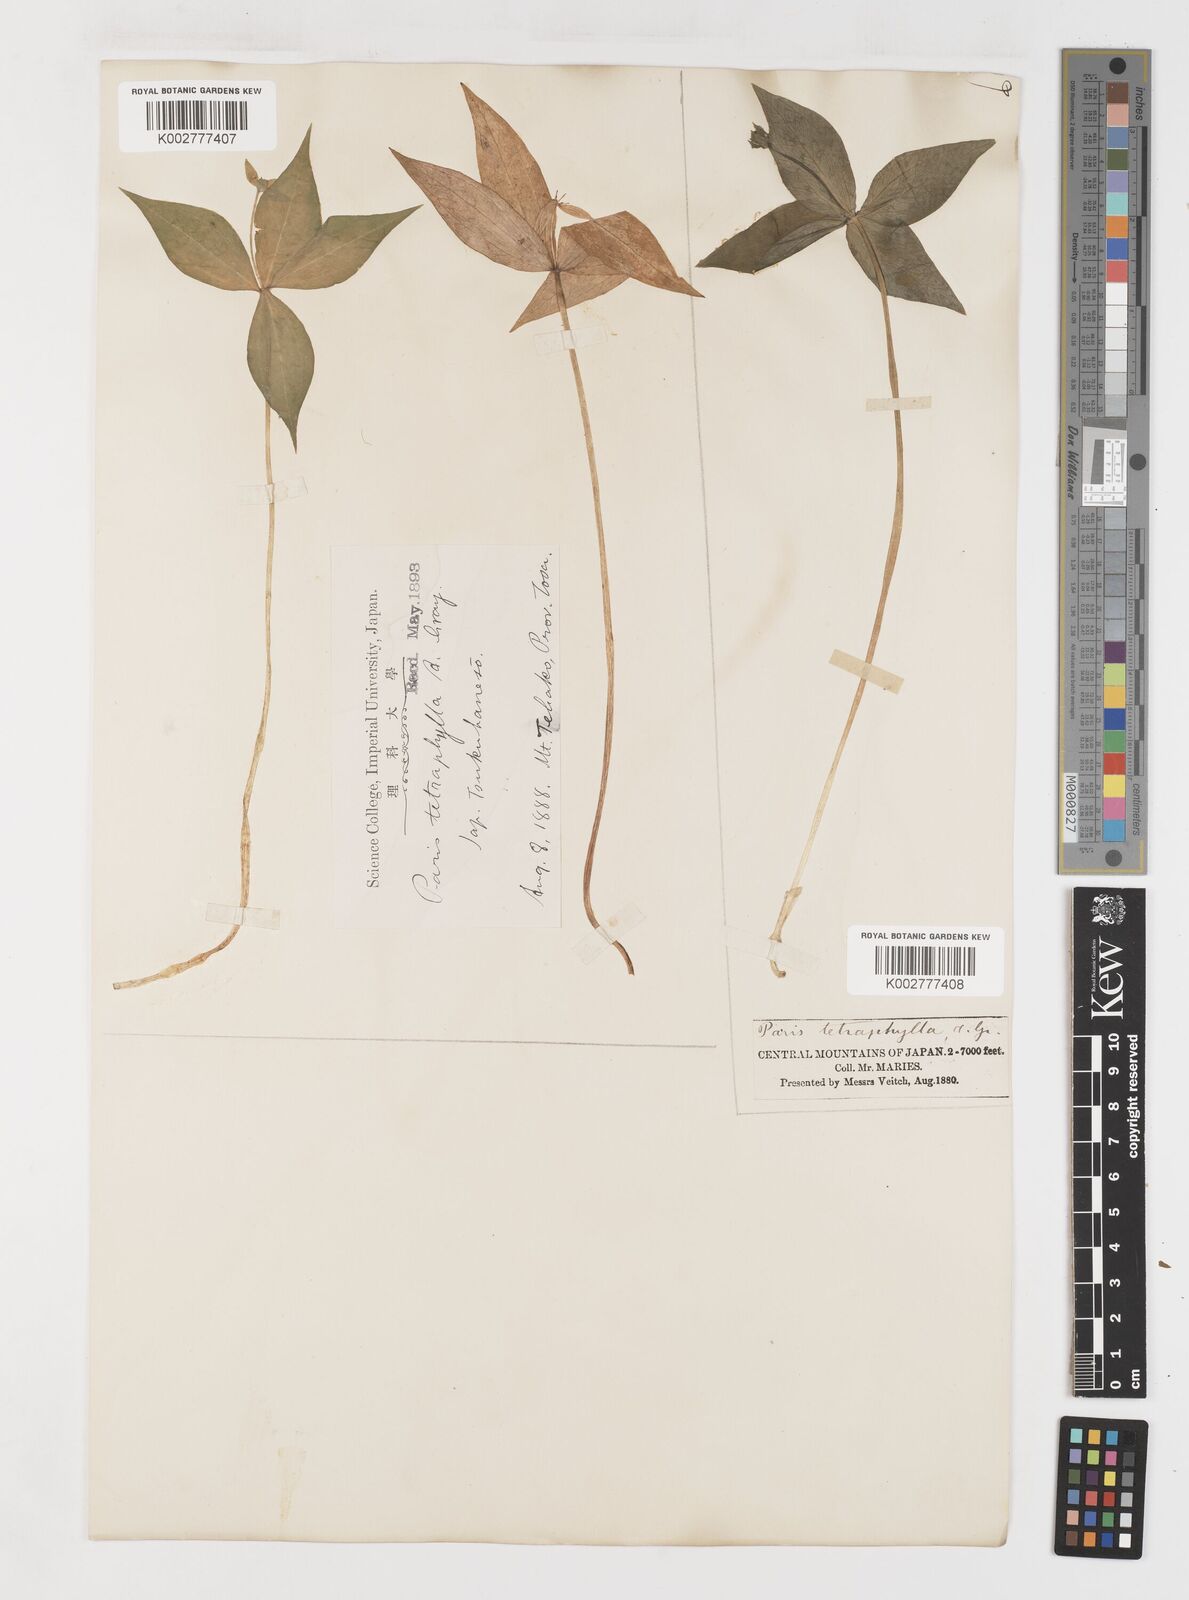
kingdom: Plantae
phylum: Tracheophyta
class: Liliopsida
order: Liliales
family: Melanthiaceae
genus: Paris
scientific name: Paris tetraphylla
